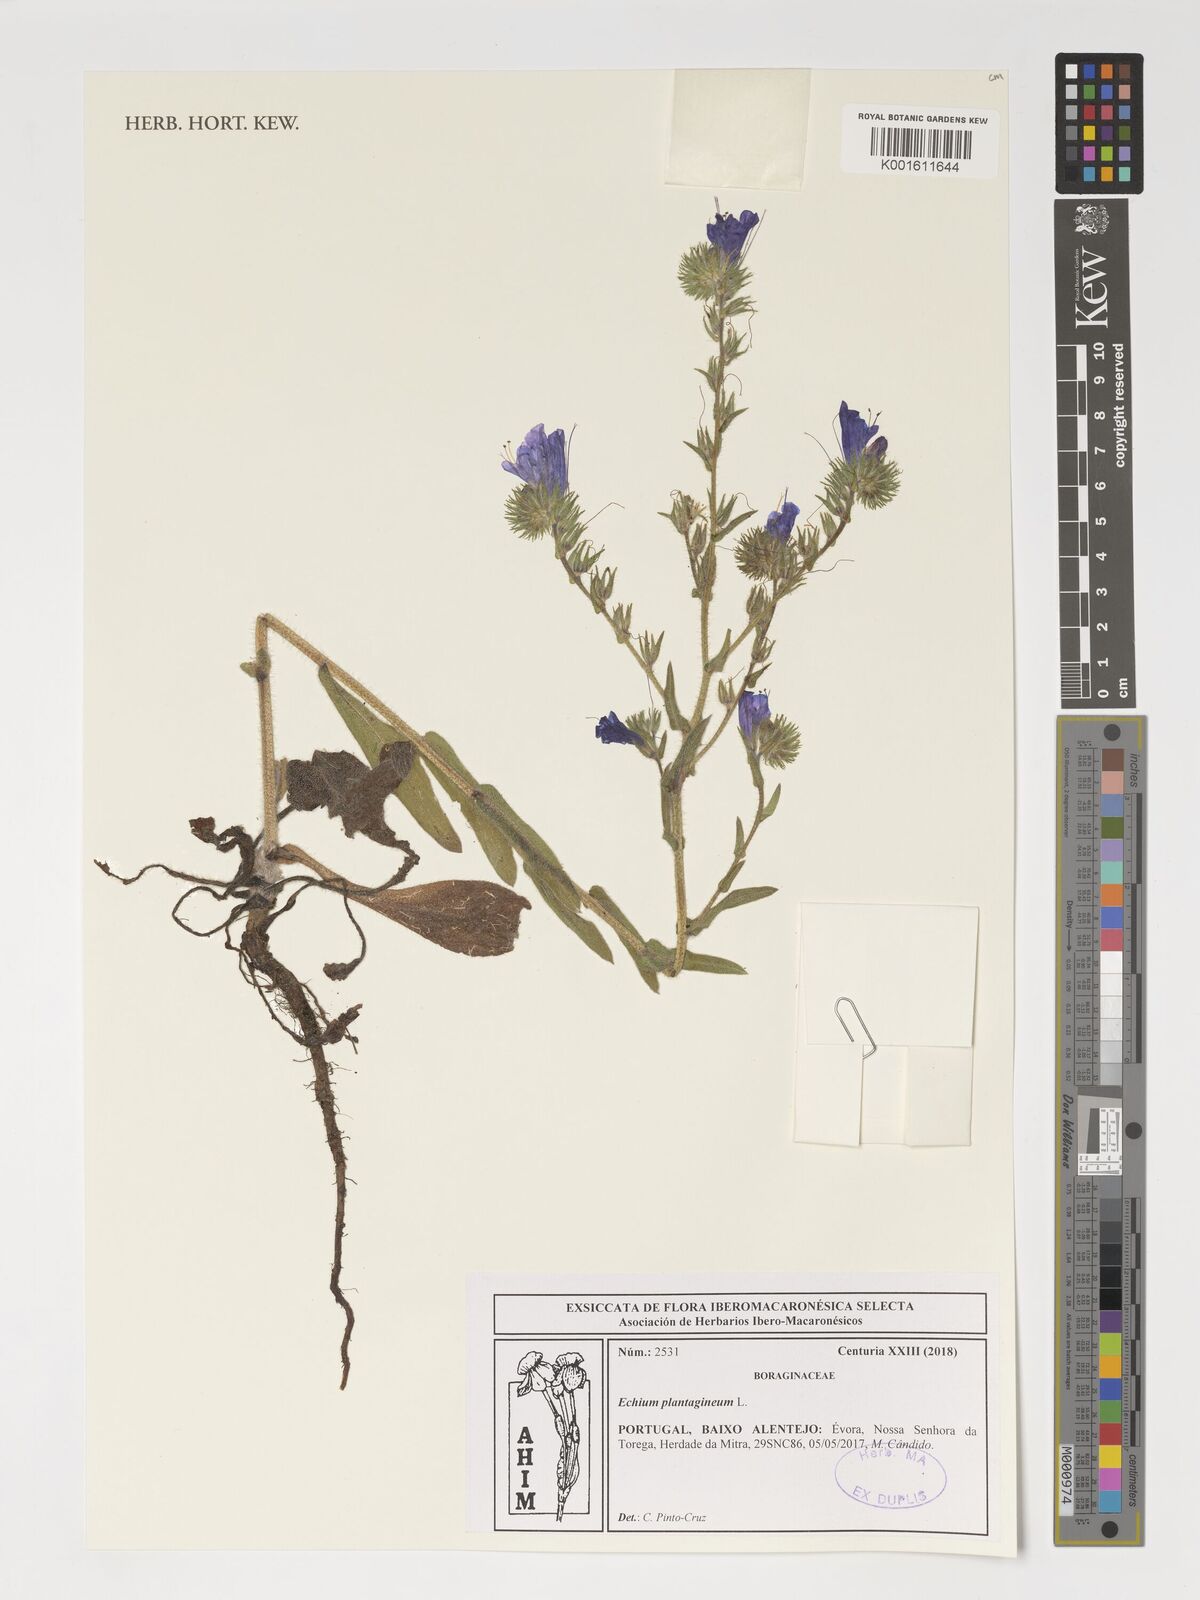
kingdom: Plantae
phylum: Tracheophyta
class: Magnoliopsida
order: Boraginales
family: Boraginaceae
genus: Echium
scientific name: Echium plantagineum
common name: Purple viper's-bugloss
